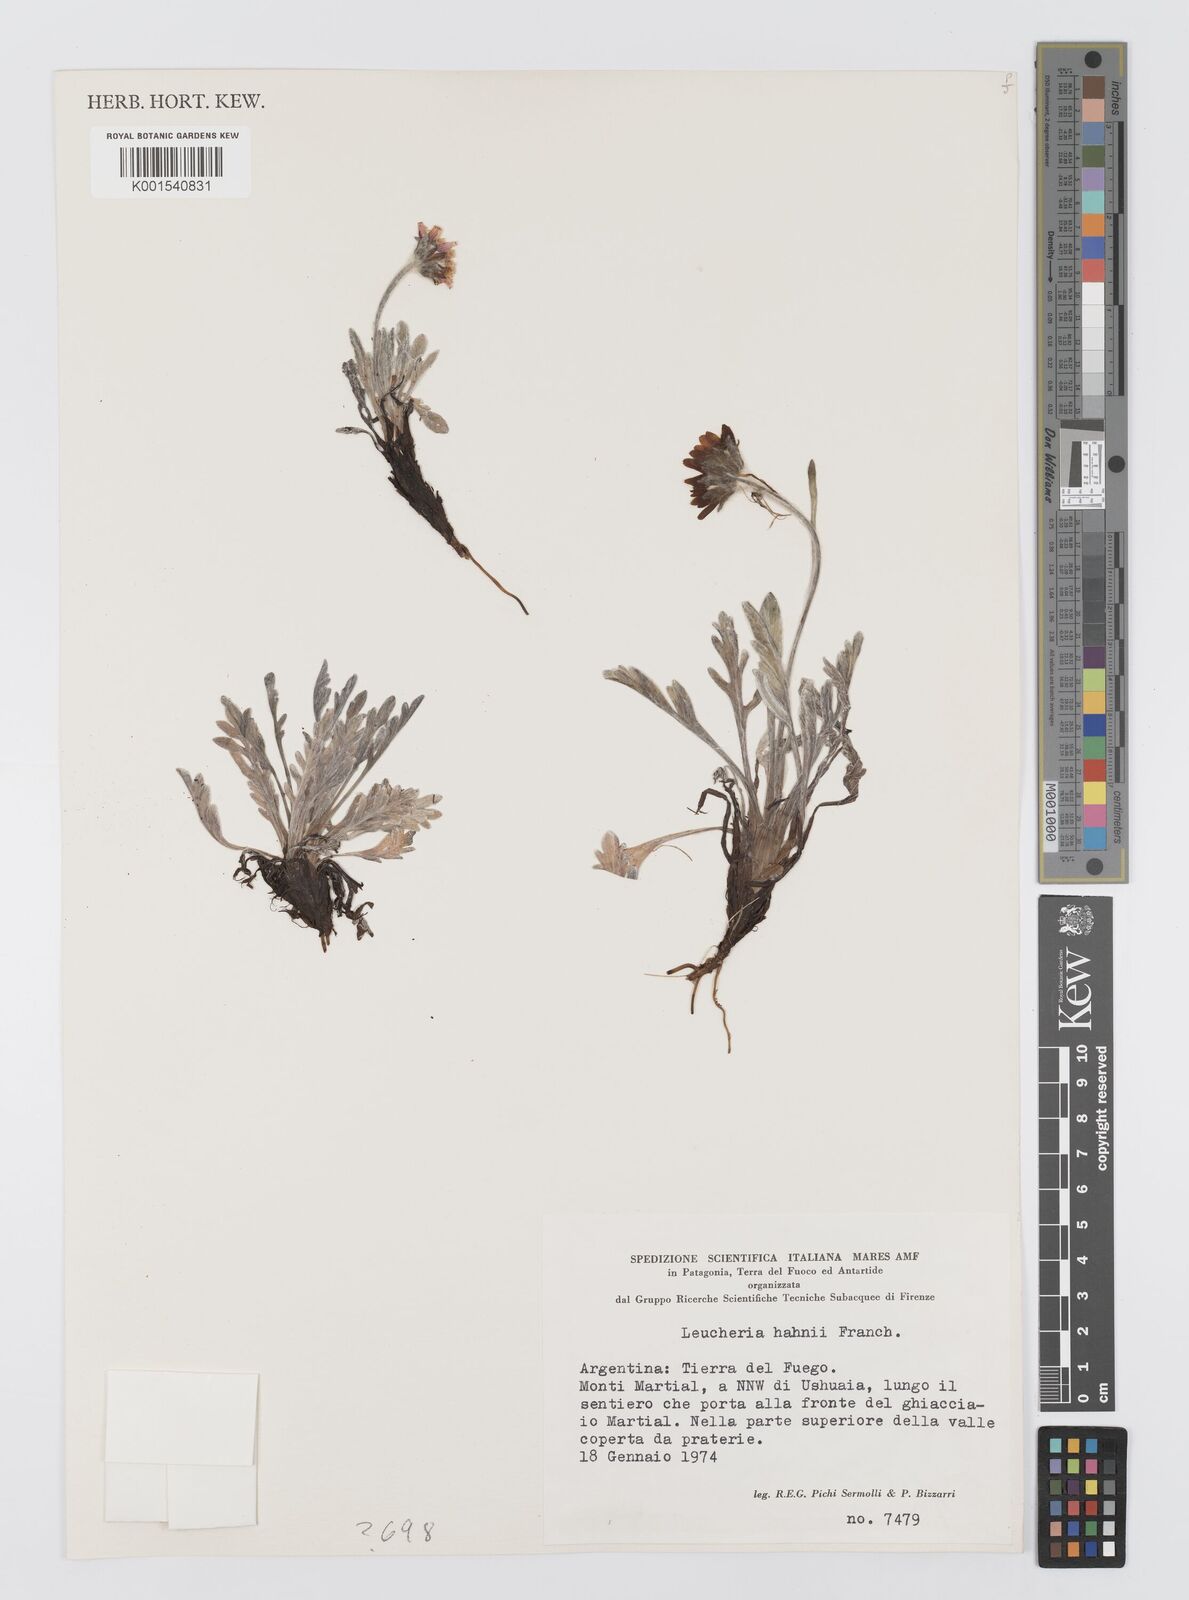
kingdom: Plantae
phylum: Tracheophyta
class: Magnoliopsida
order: Asterales
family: Asteraceae
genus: Leucheria
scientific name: Leucheria hahnii
